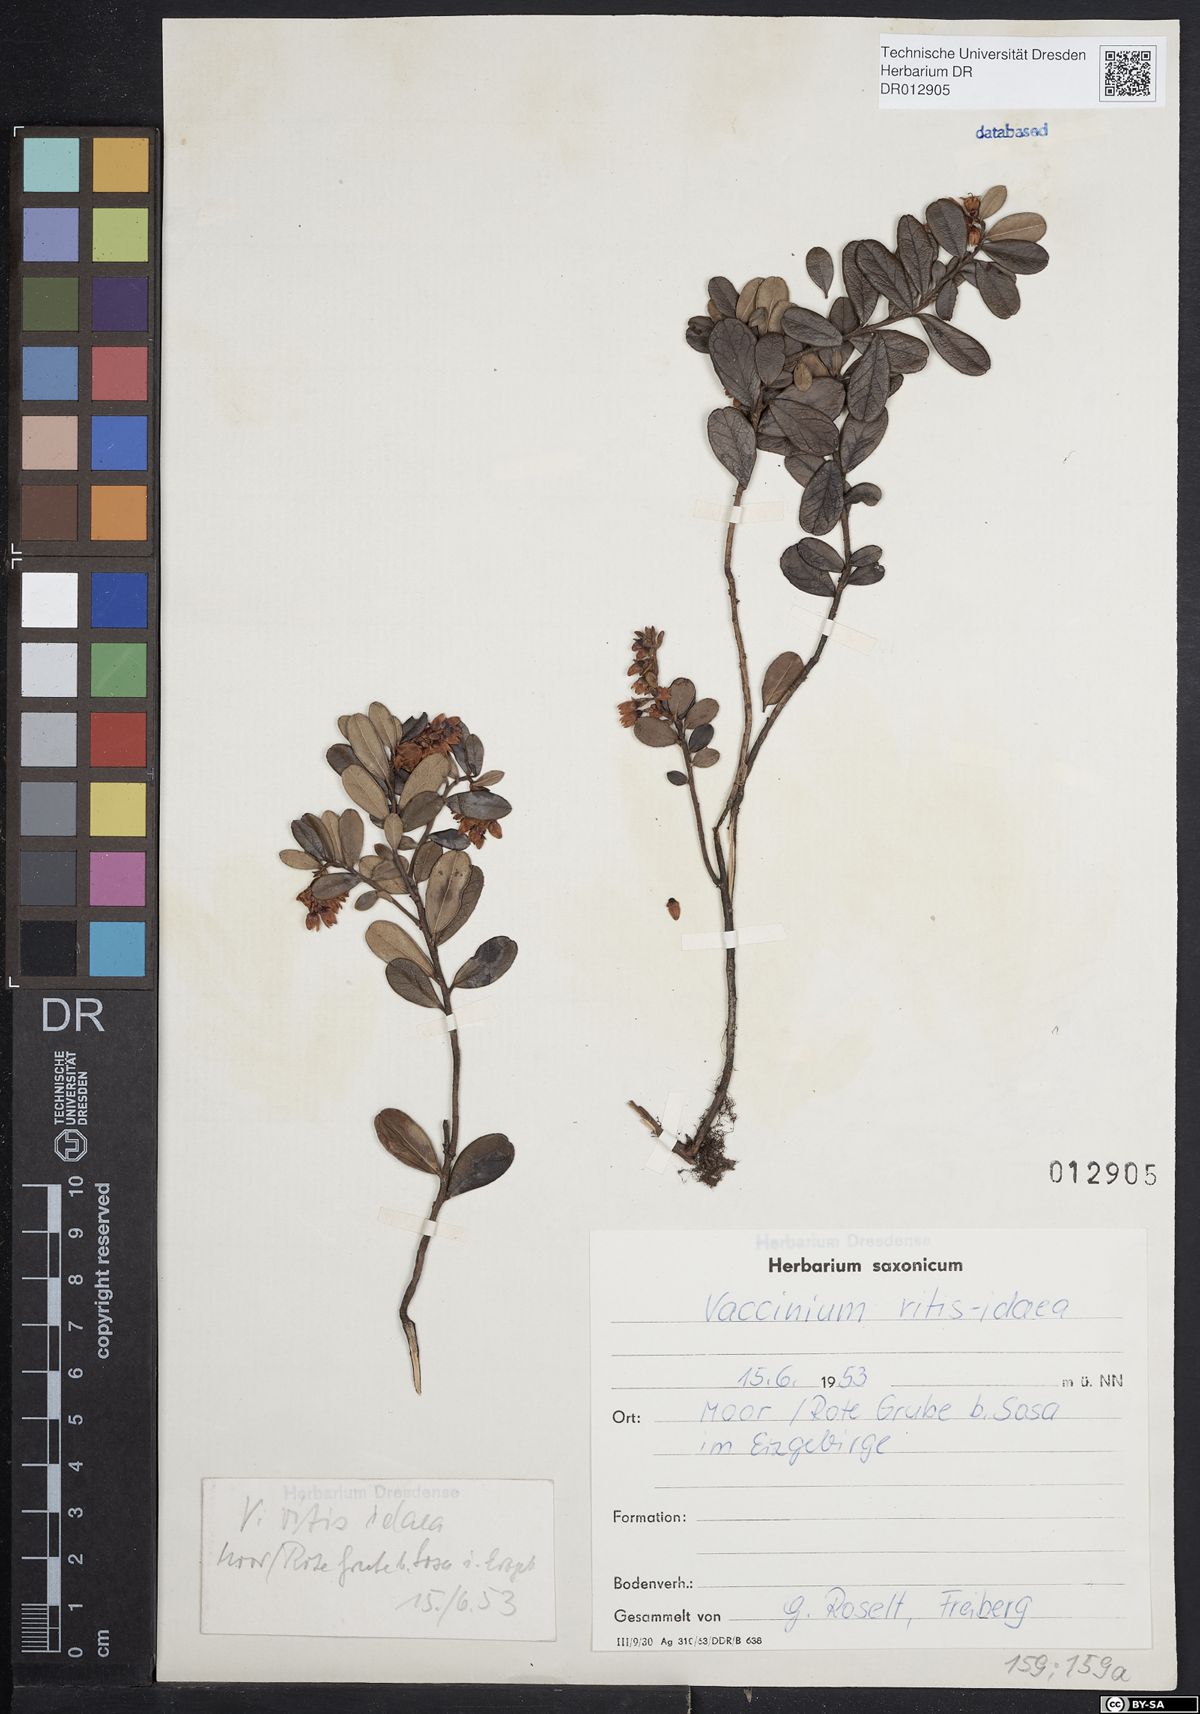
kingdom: Plantae
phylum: Tracheophyta
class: Magnoliopsida
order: Ericales
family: Ericaceae
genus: Vaccinium
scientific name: Vaccinium vitis-idaea
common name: Cowberry
